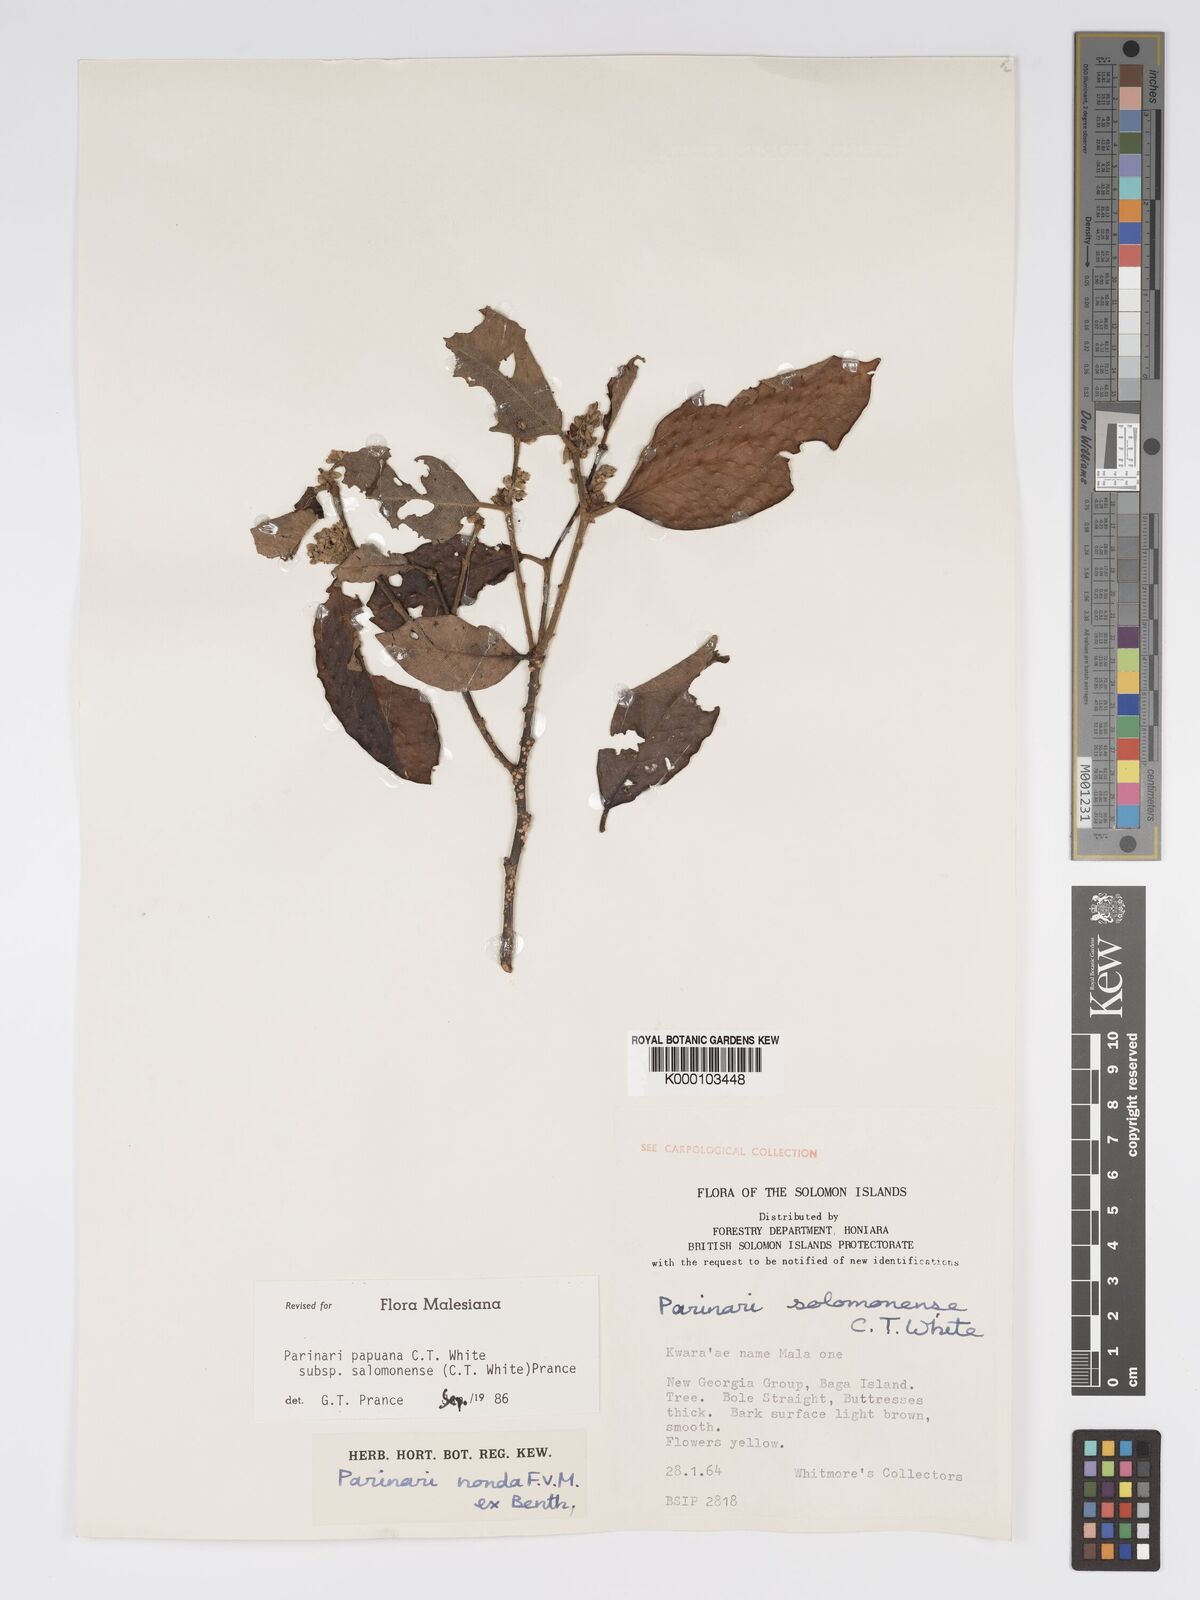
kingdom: Plantae
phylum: Tracheophyta
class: Magnoliopsida
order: Malpighiales
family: Chrysobalanaceae
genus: Parinari
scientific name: Parinari papuana
